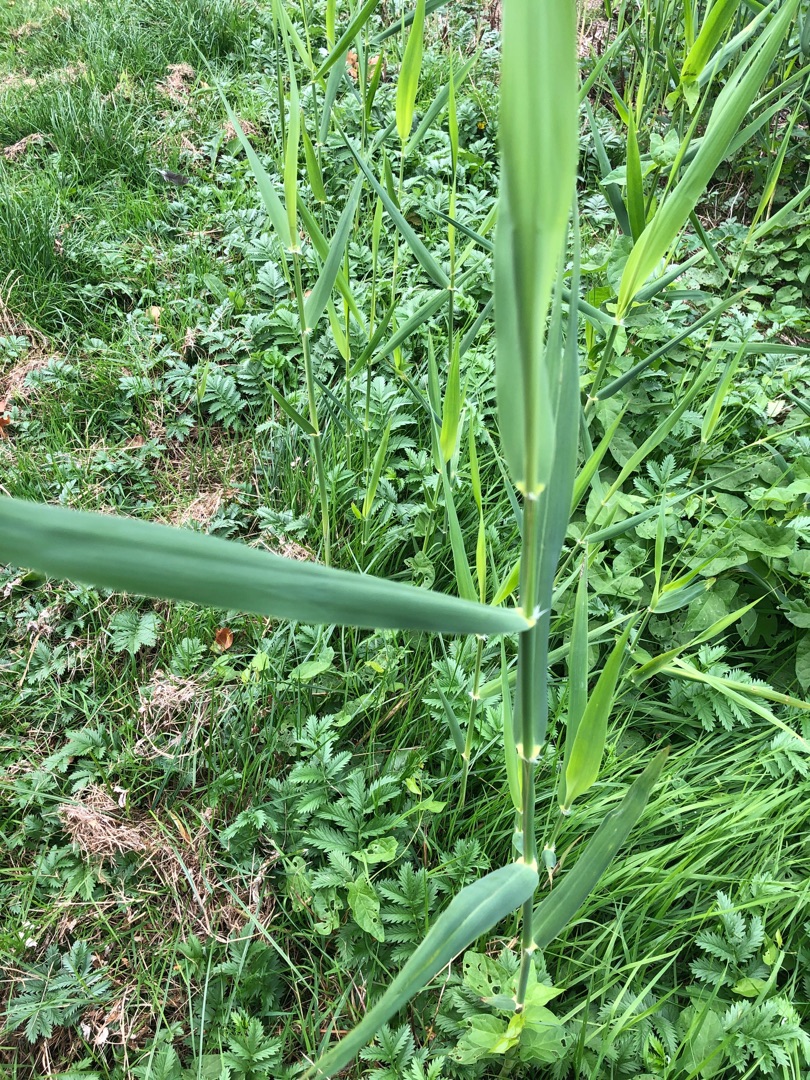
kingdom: Plantae
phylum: Tracheophyta
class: Liliopsida
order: Poales
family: Poaceae
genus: Phragmites
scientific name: Phragmites australis
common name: Tagrør
